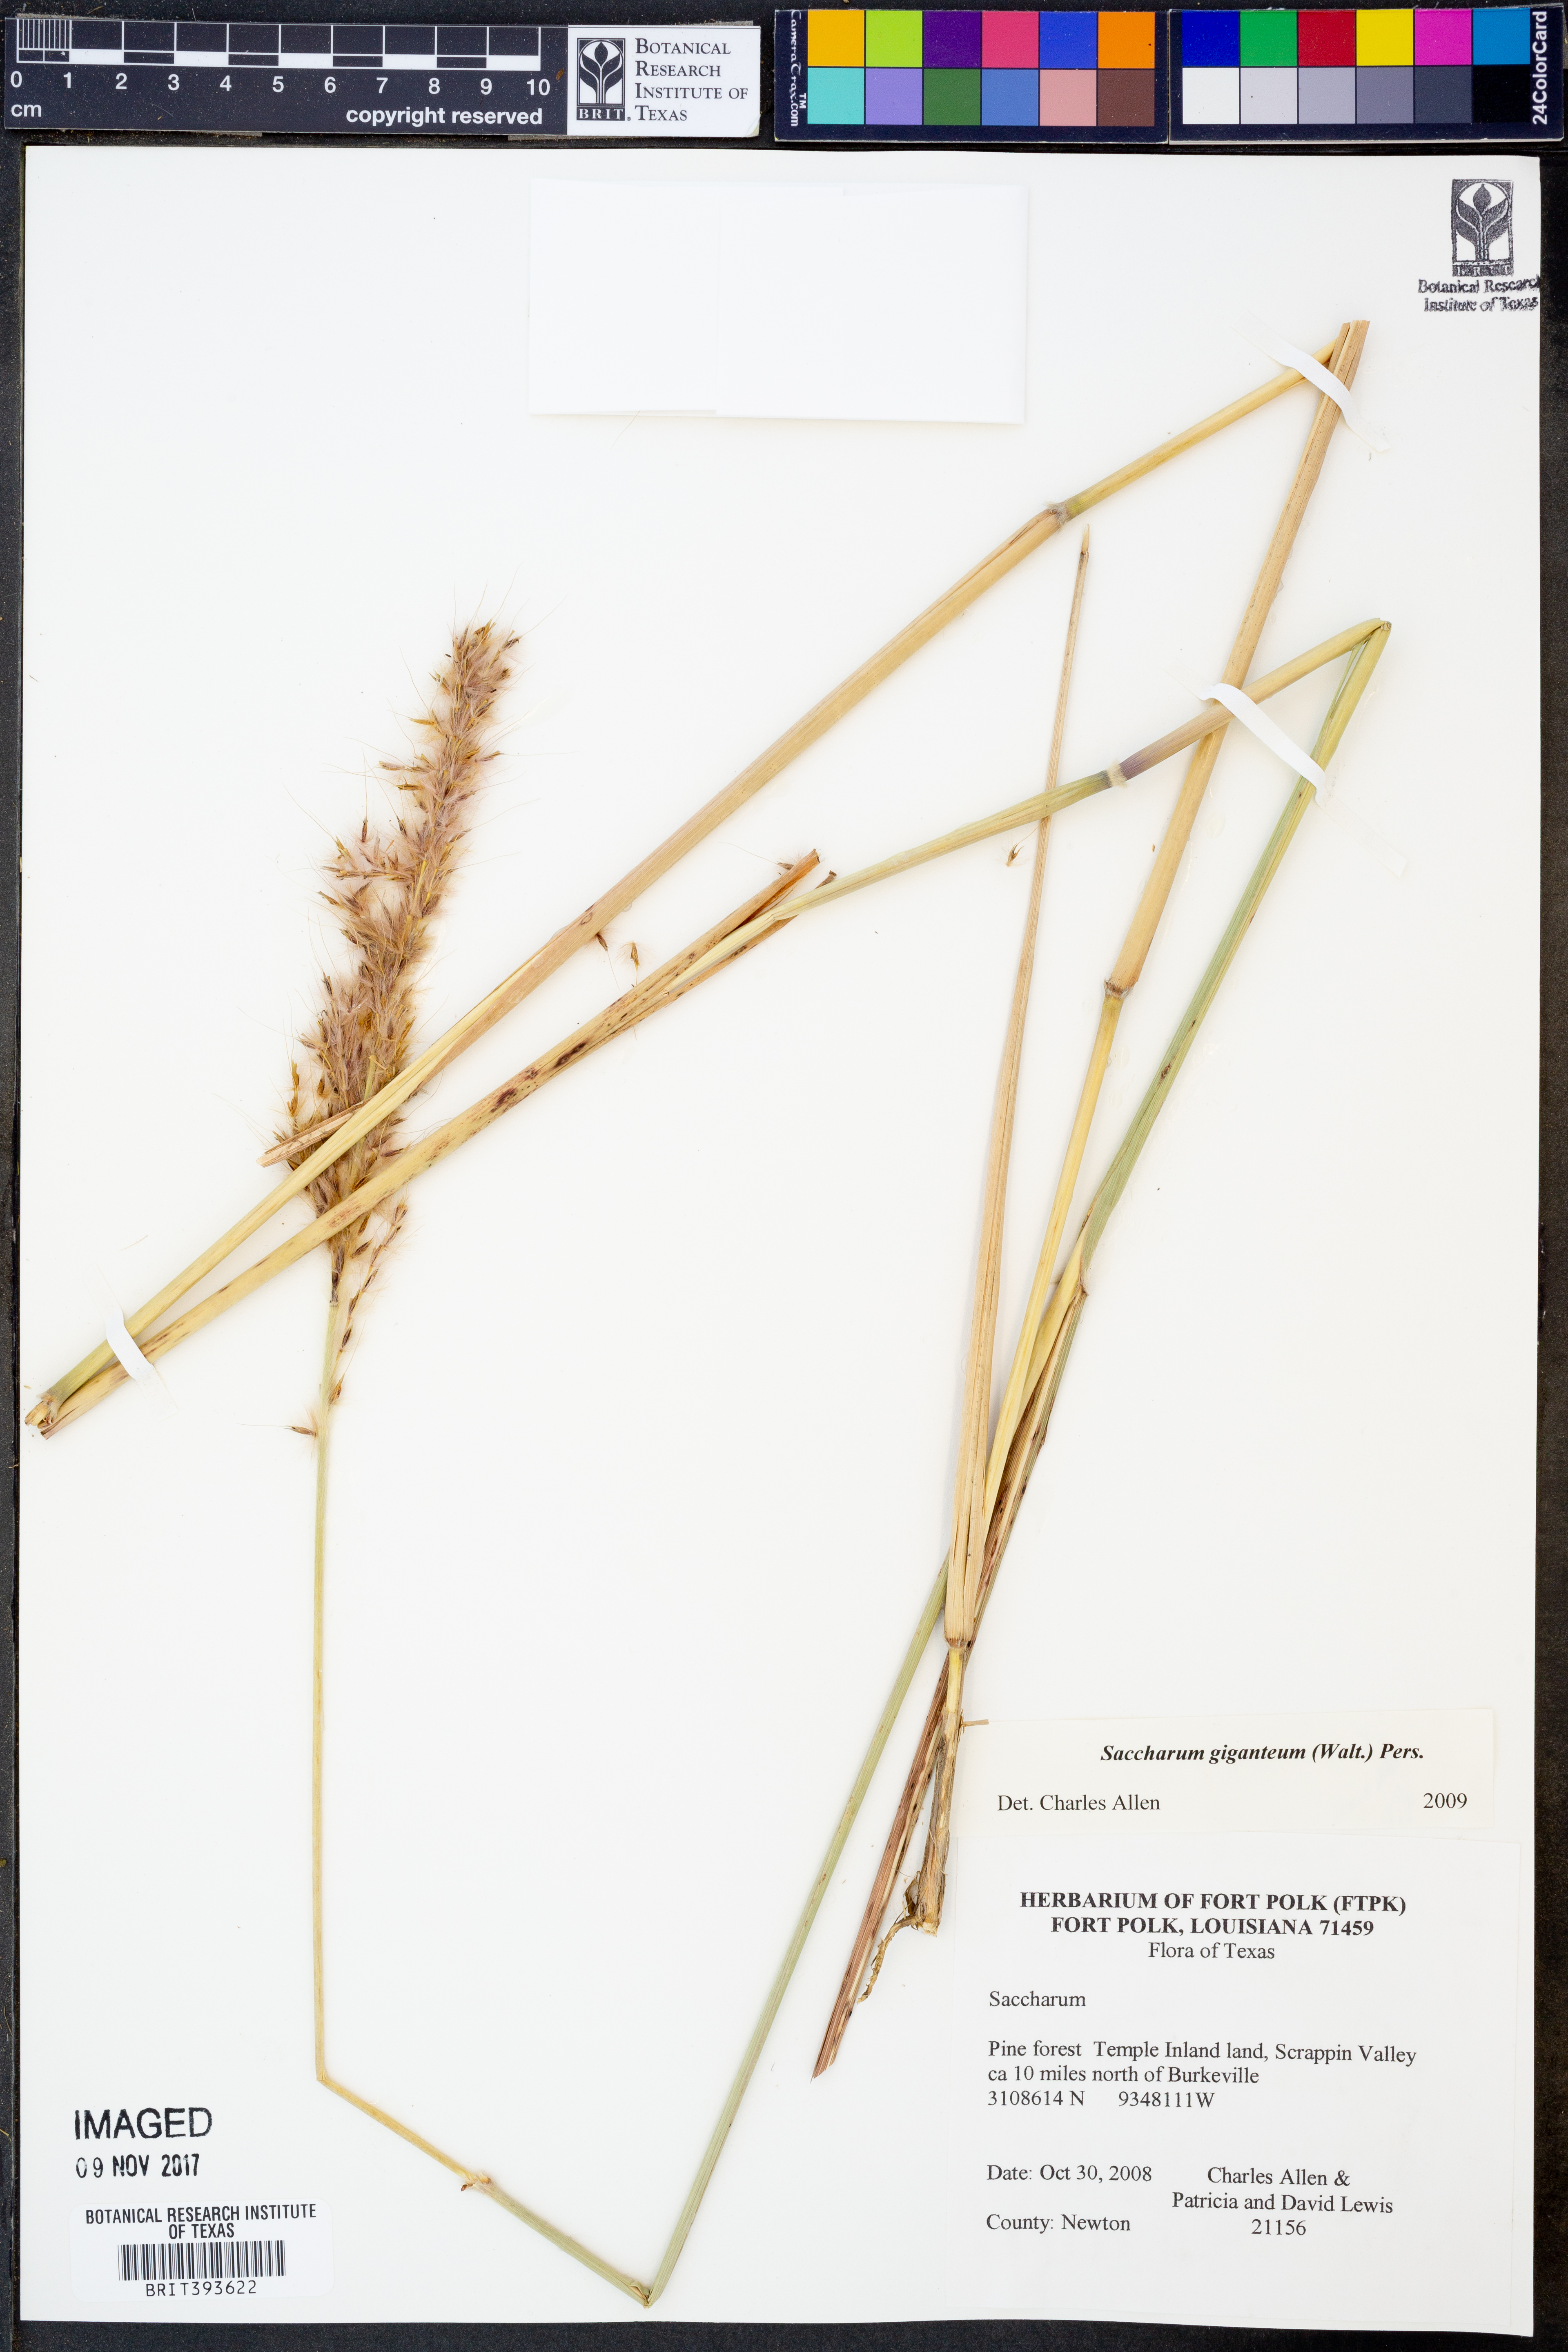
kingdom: Plantae
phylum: Tracheophyta
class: Liliopsida
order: Poales
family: Poaceae
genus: Erianthus
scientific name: Erianthus giganteus
